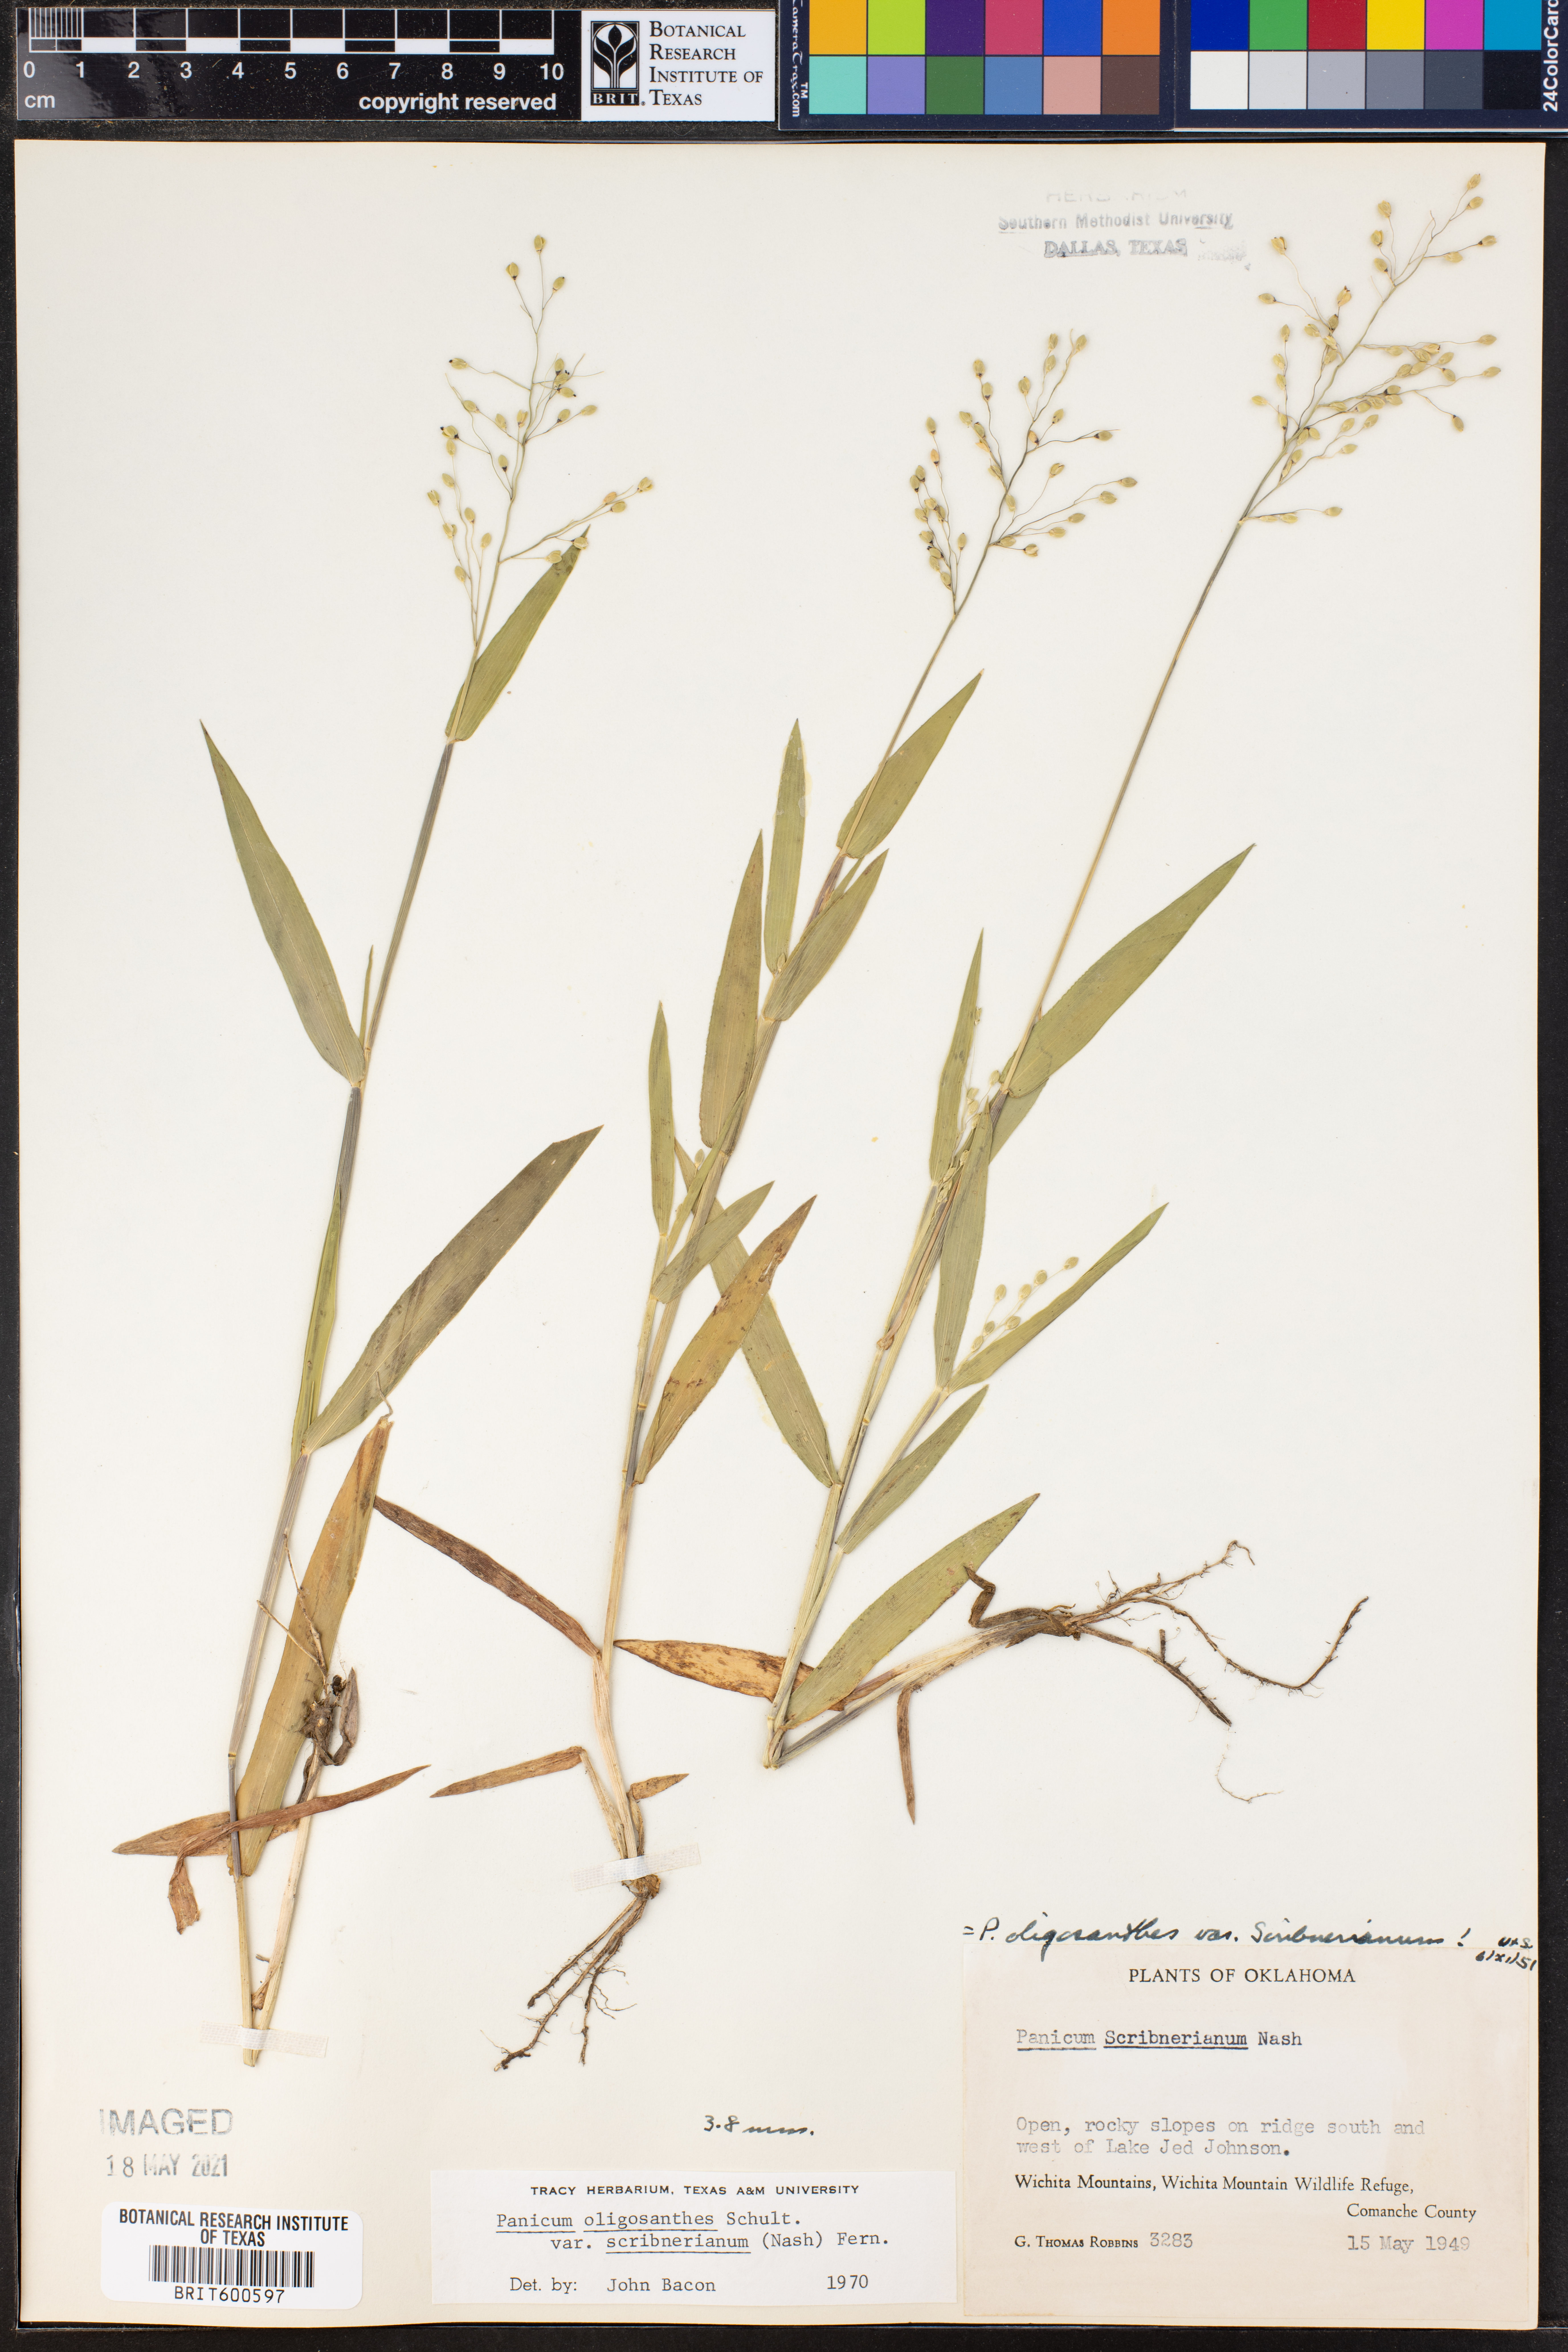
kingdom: Plantae
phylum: Tracheophyta
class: Liliopsida
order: Poales
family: Poaceae
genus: Dichanthelium
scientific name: Dichanthelium scribnerianum
